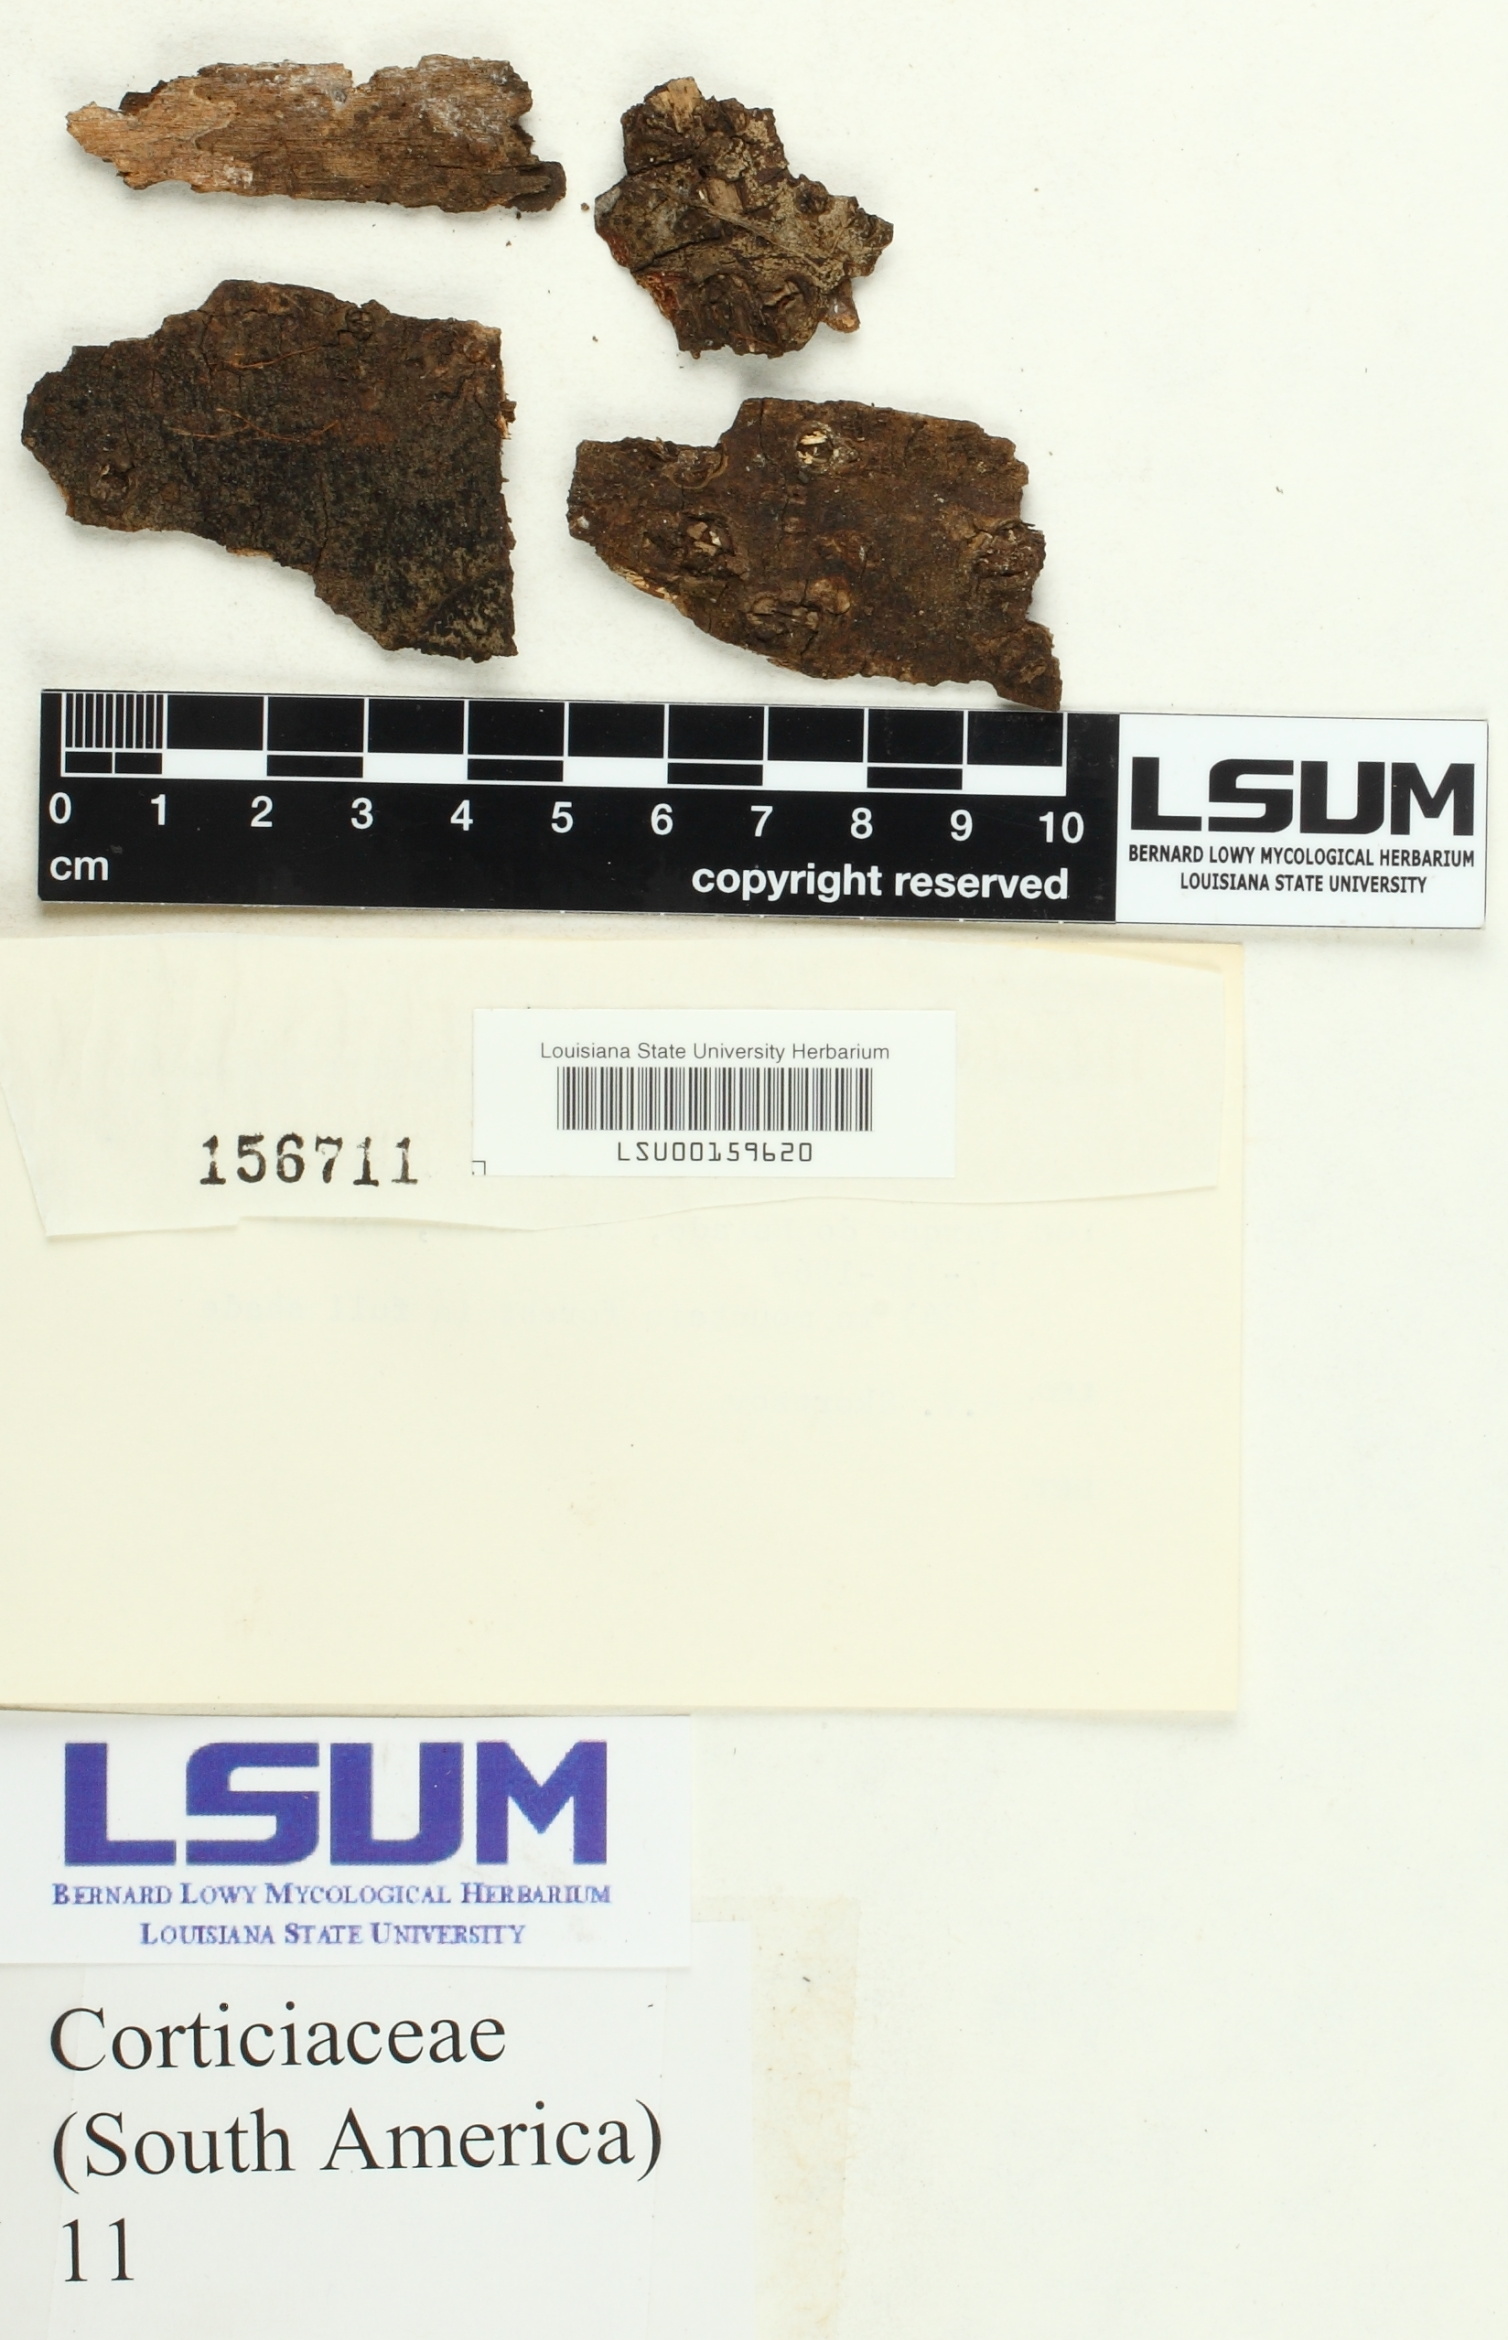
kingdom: Fungi
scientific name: Fungi
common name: Fungi
